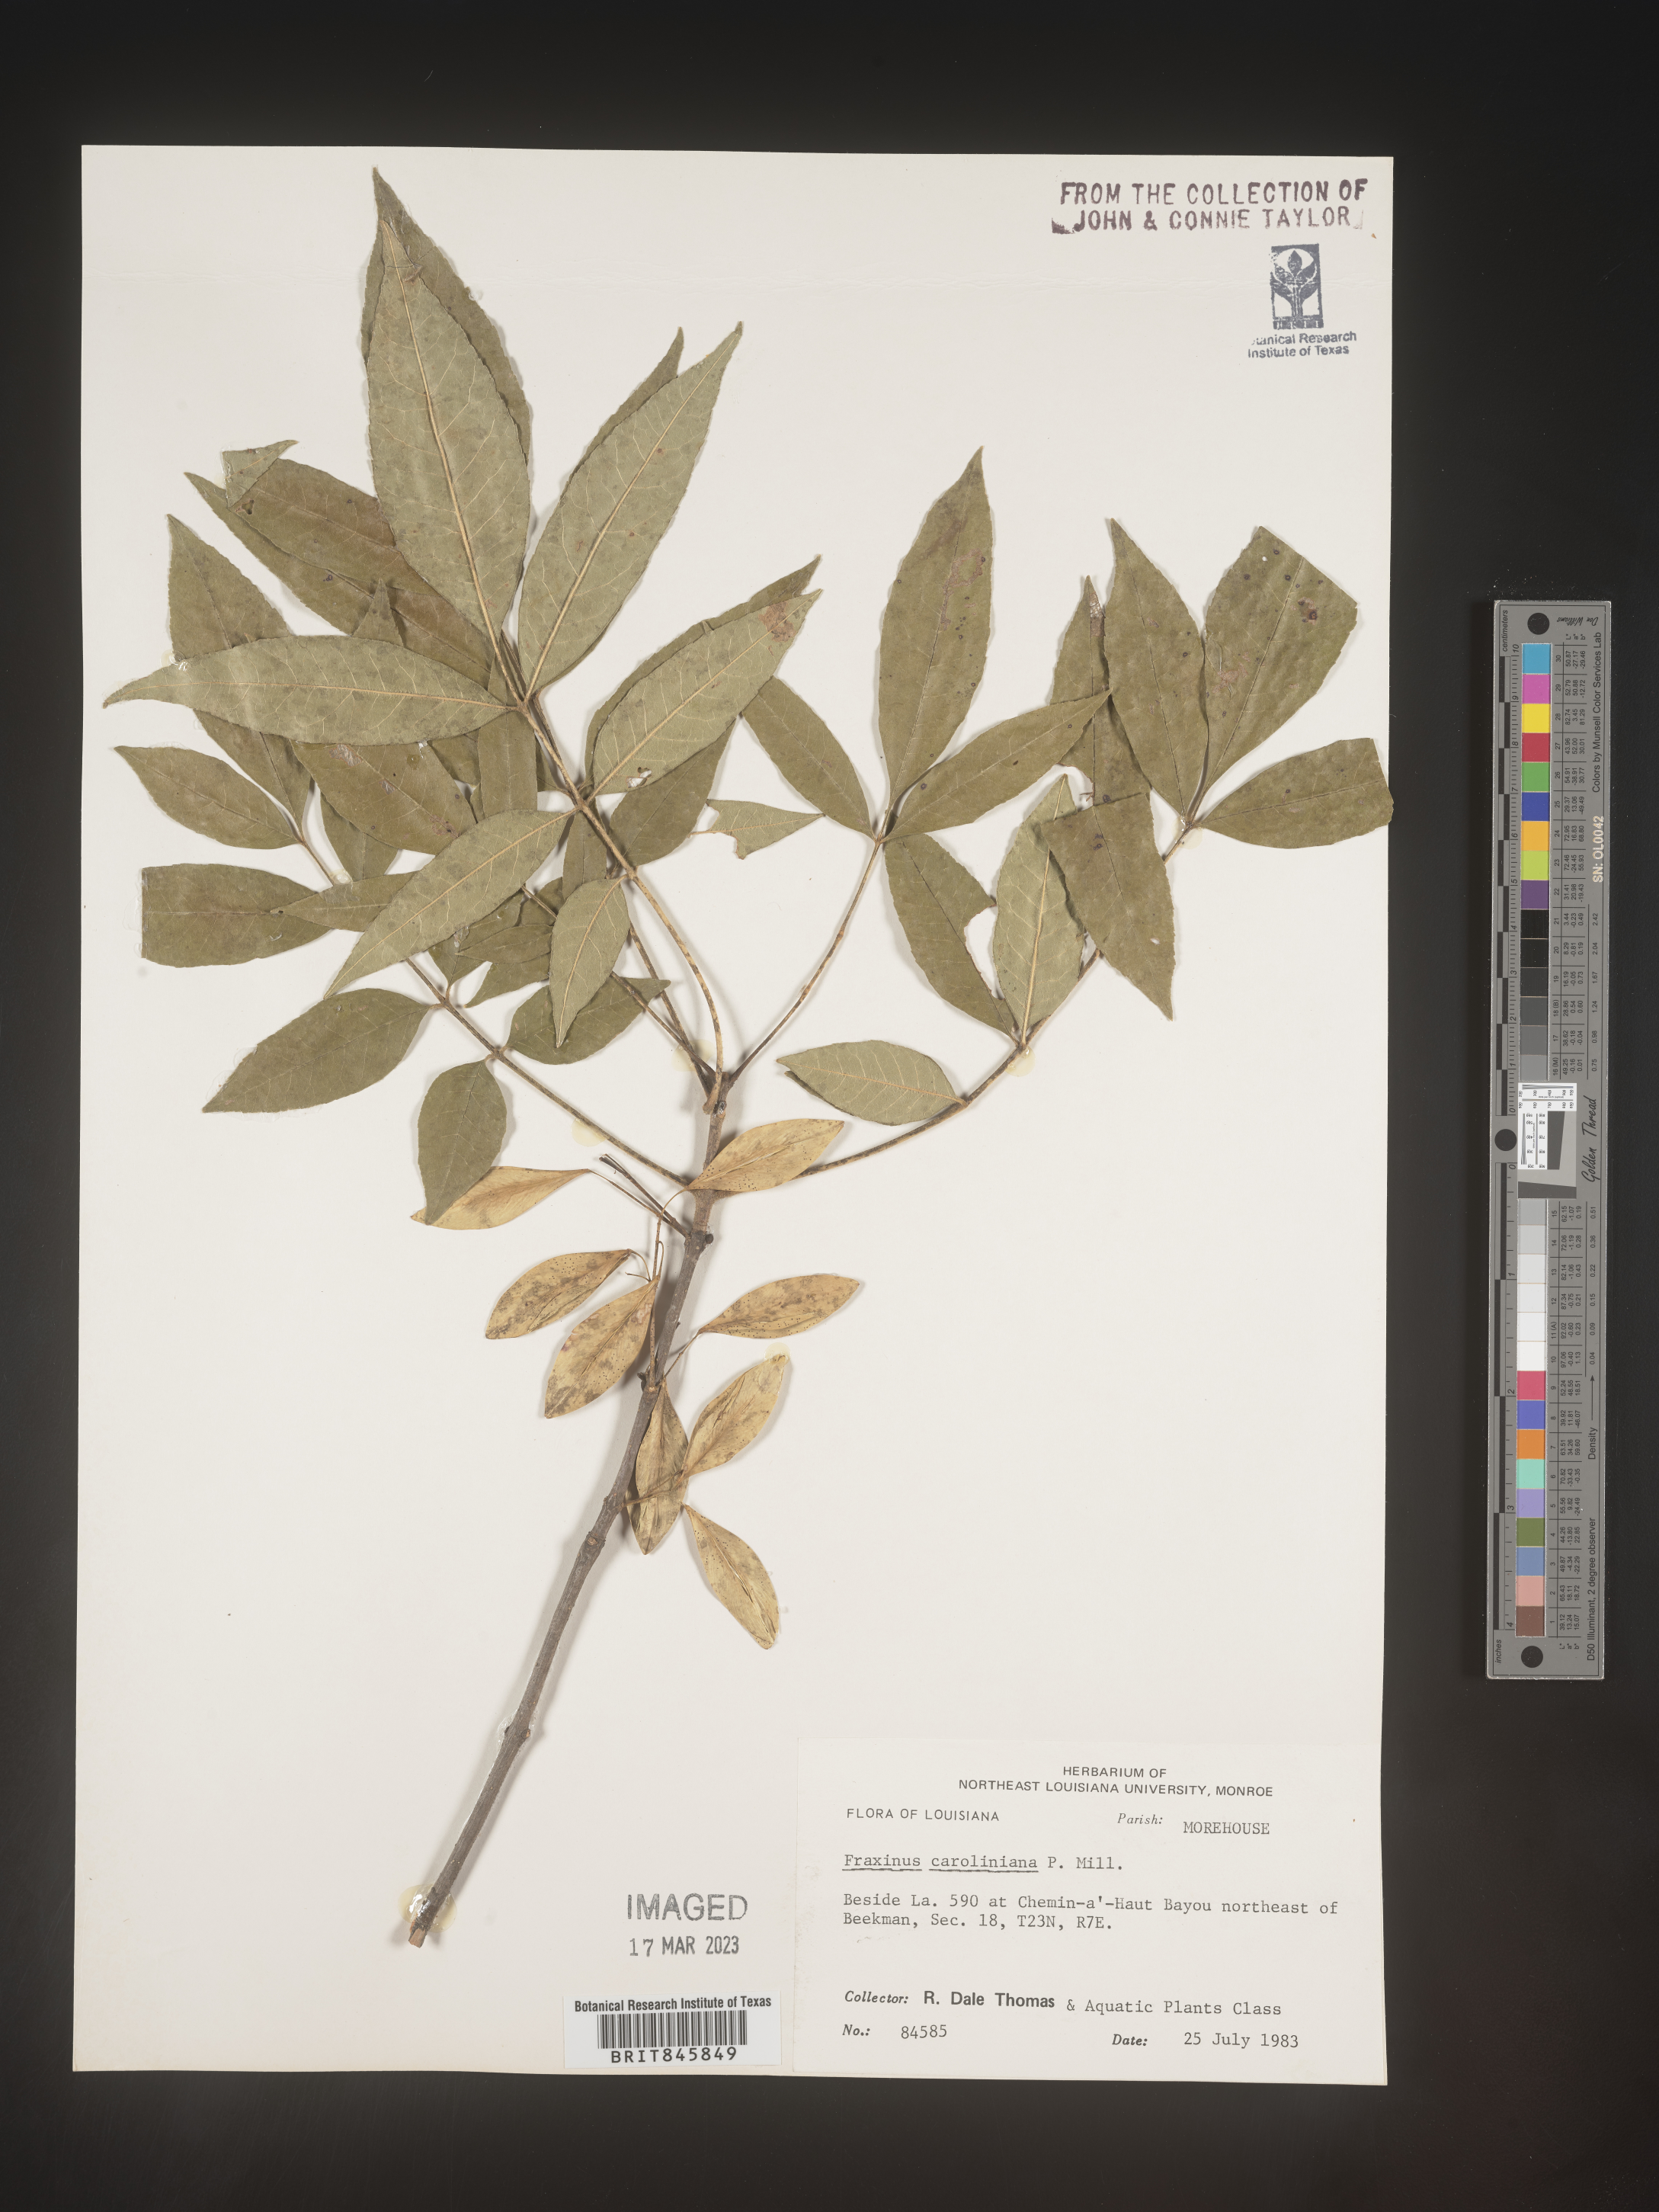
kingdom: Plantae
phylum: Tracheophyta
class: Magnoliopsida
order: Lamiales
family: Oleaceae
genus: Fraxinus
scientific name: Fraxinus caroliniana
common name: Carolina ash
